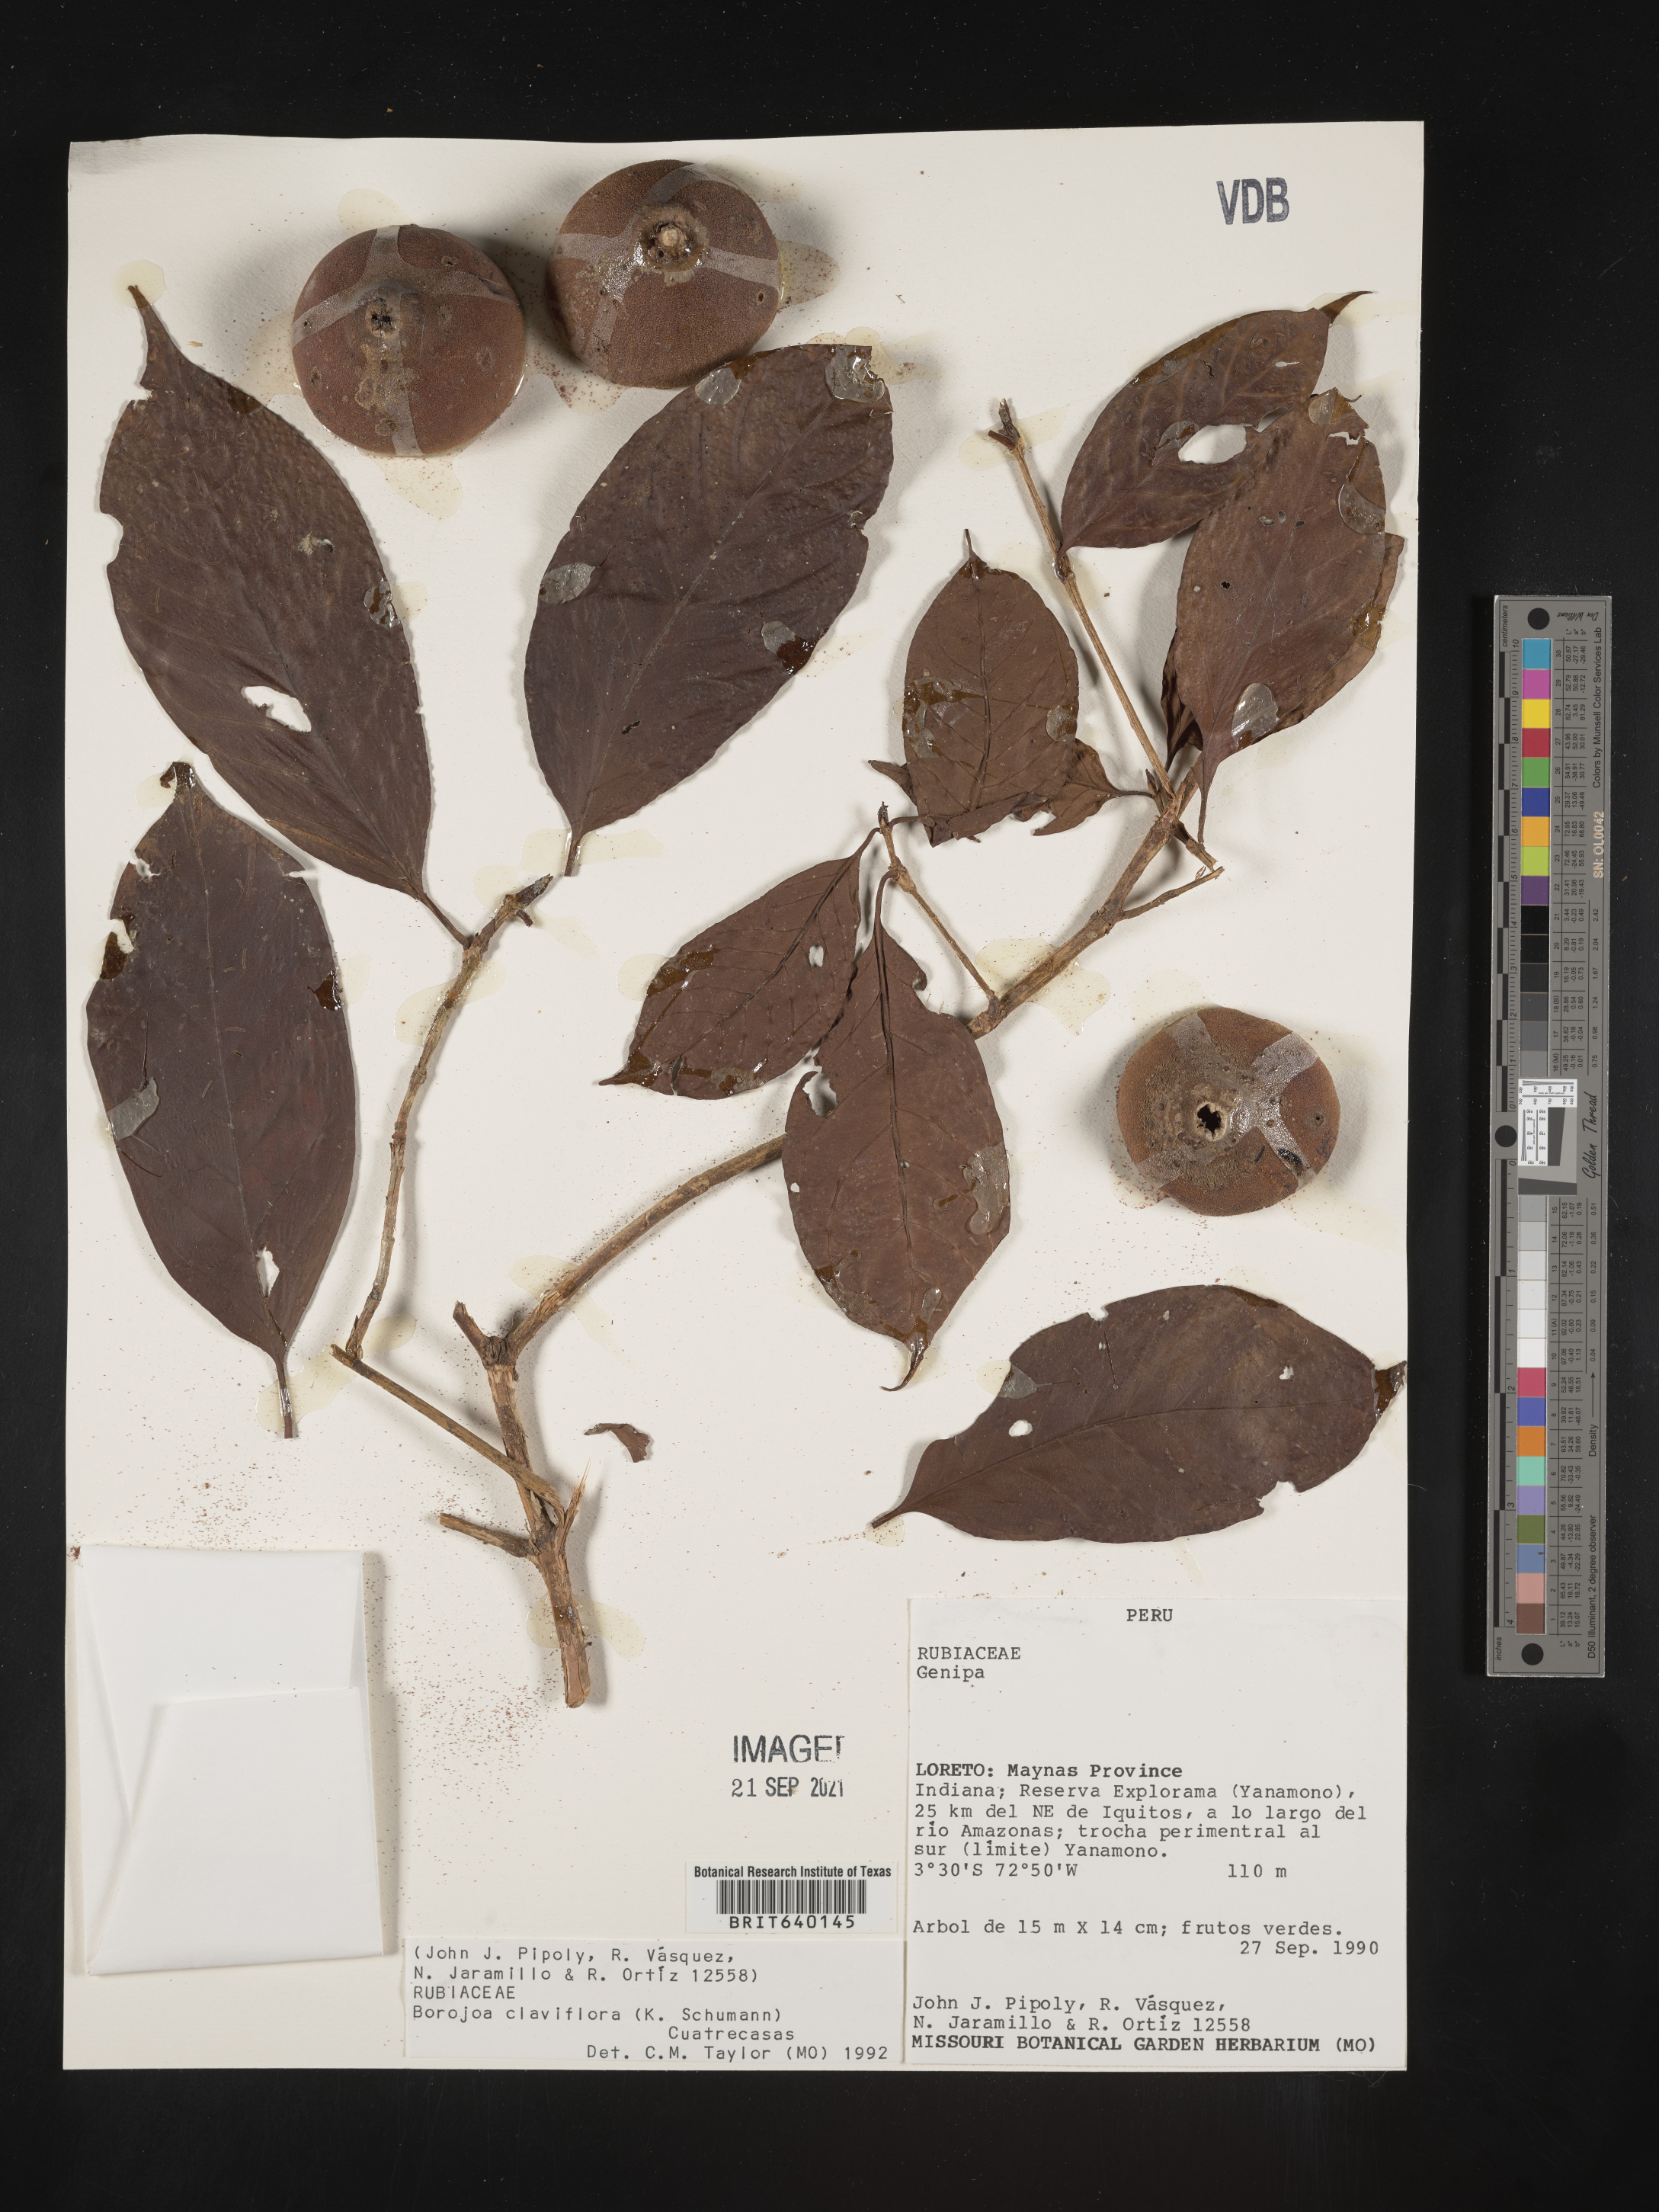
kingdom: Plantae
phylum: Tracheophyta
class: Magnoliopsida
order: Gentianales
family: Rubiaceae
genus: Alibertia
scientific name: Alibertia
